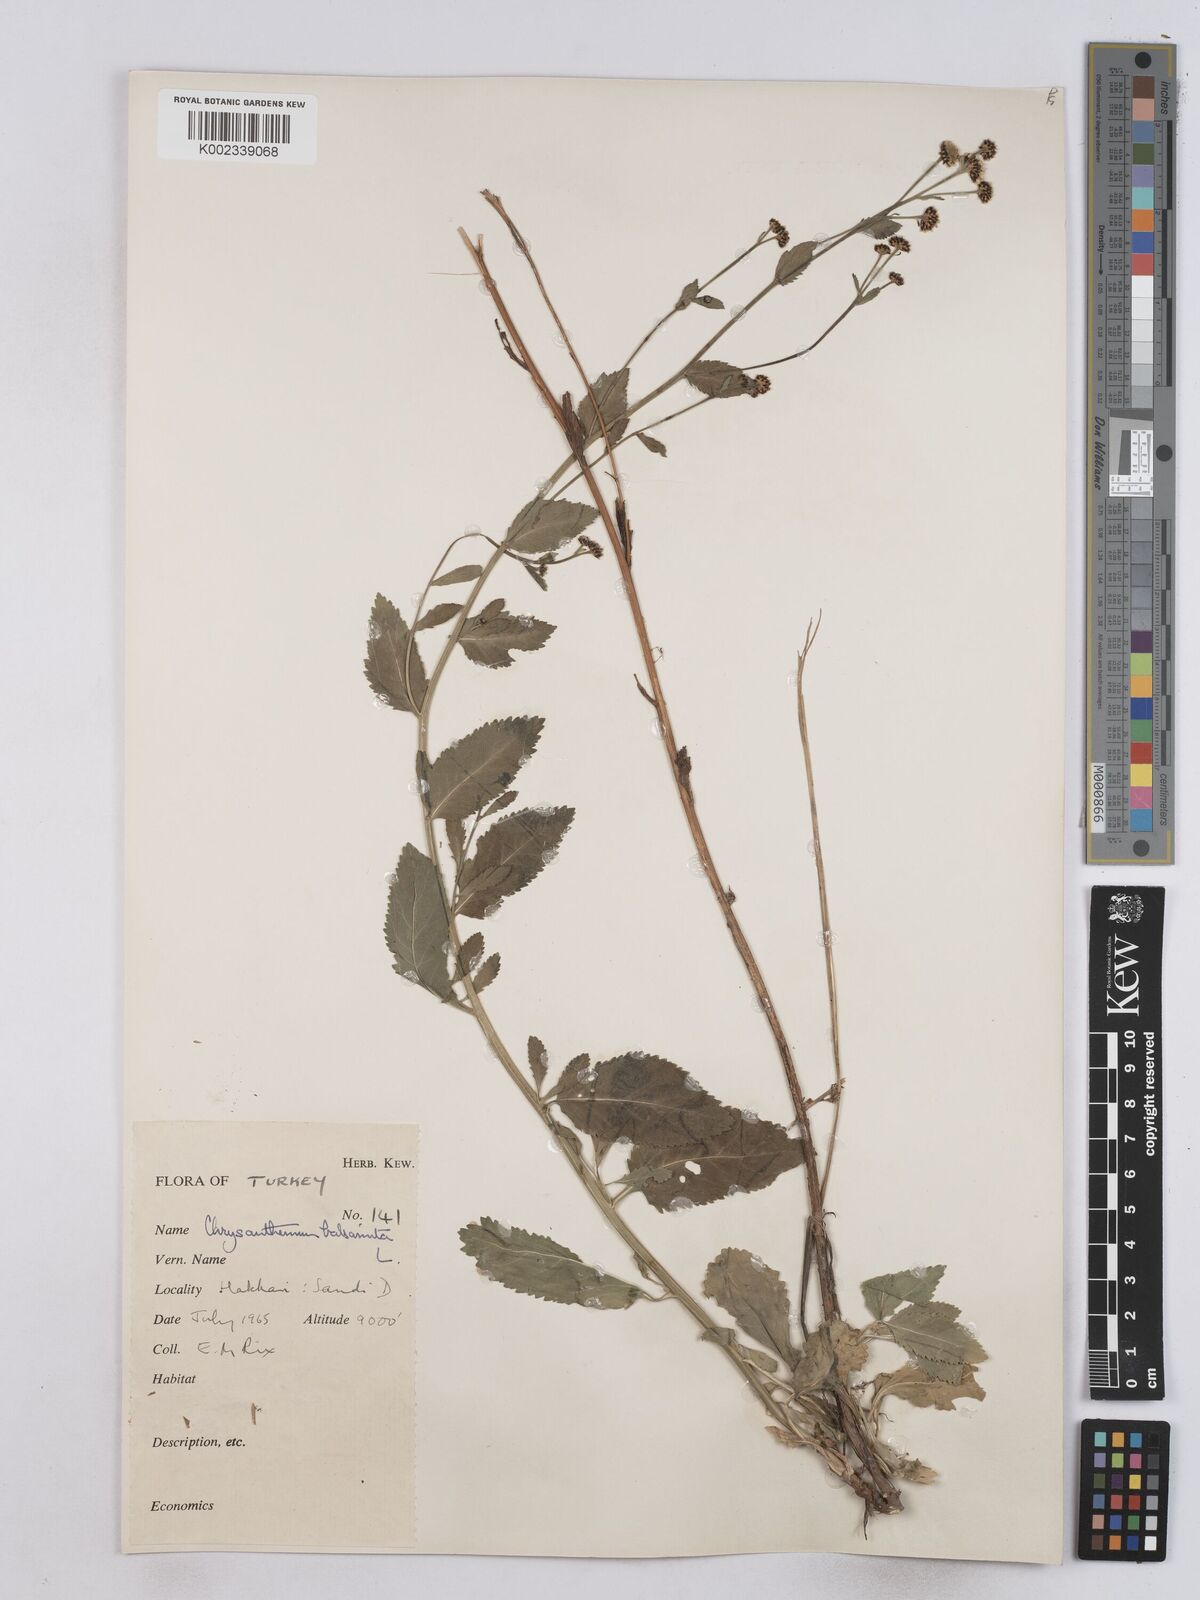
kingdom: Plantae
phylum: Tracheophyta
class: Magnoliopsida
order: Asterales
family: Asteraceae
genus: Tanacetum
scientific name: Tanacetum balsamita
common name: Costmary
